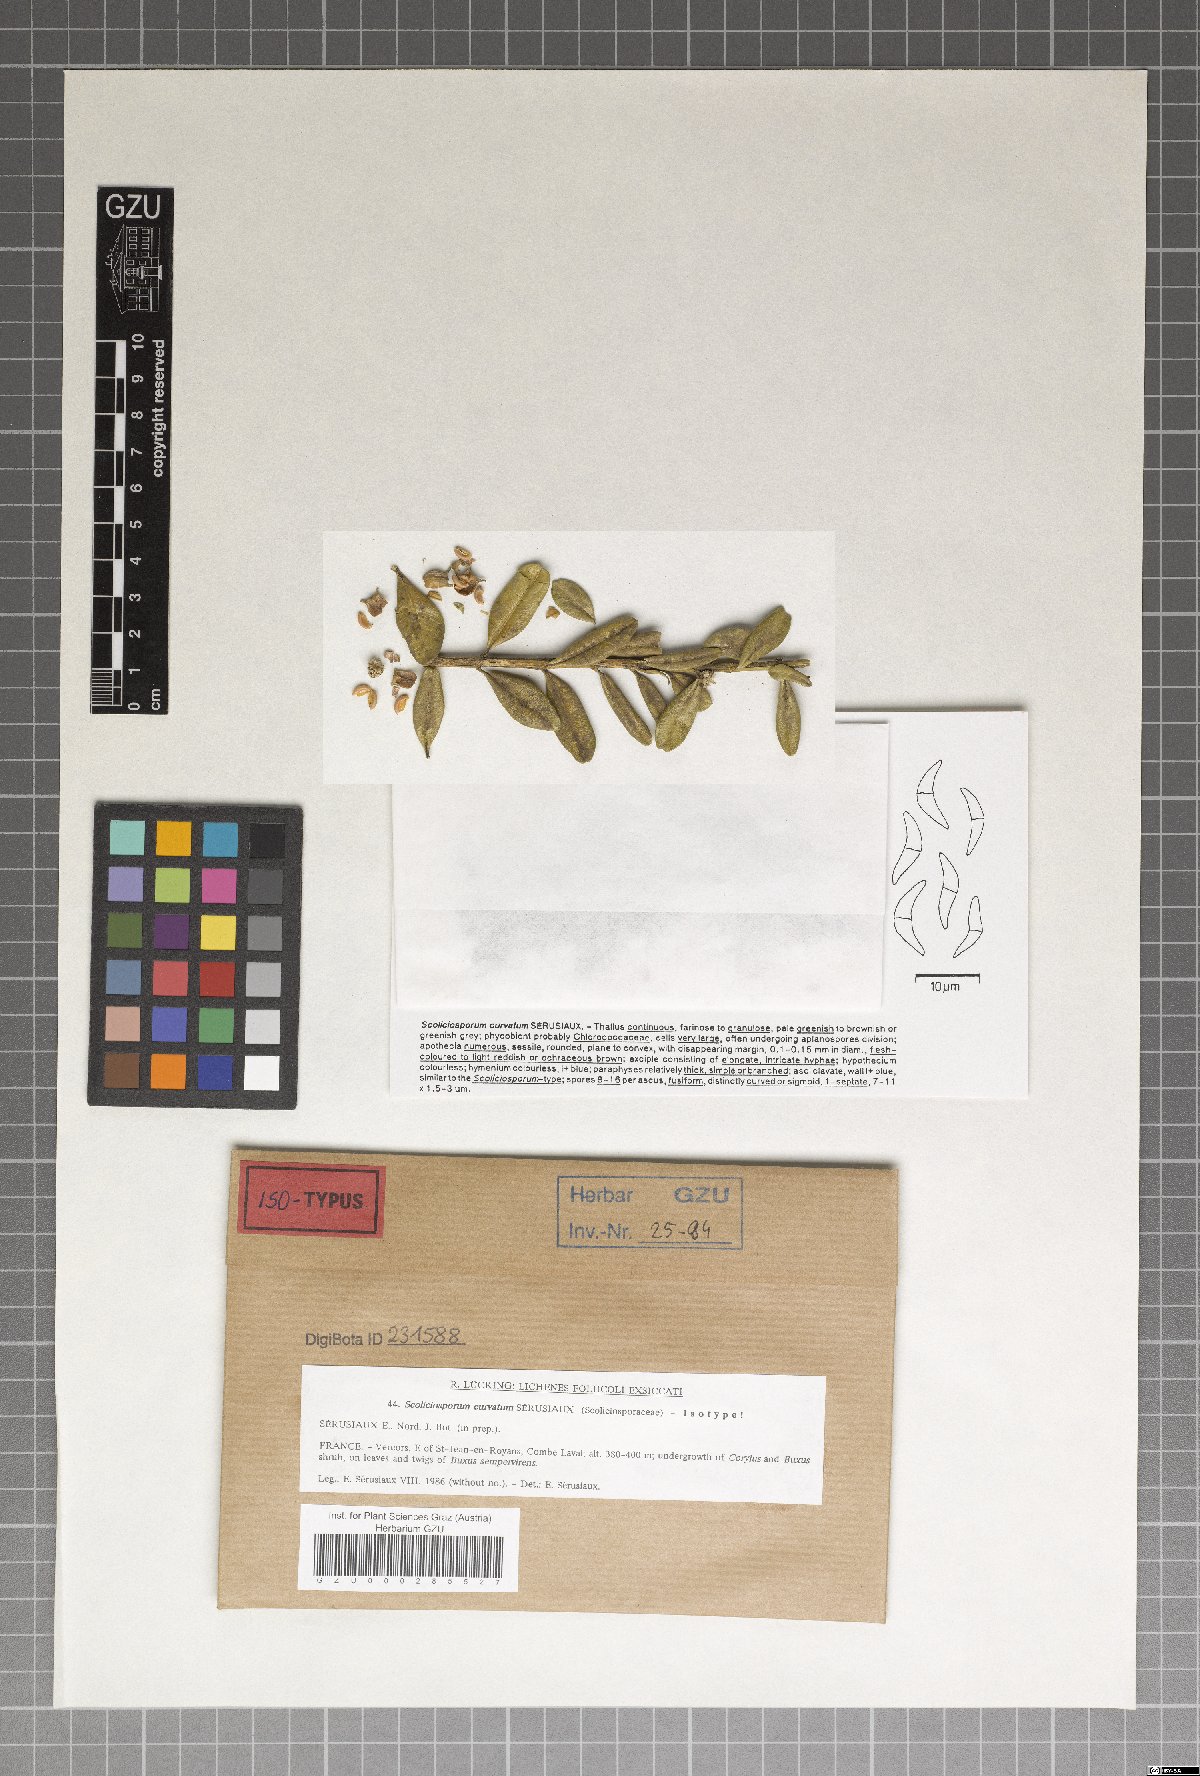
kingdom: Fungi
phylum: Ascomycota
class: Lecanoromycetes
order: Lecanorales
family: Scoliciosporaceae
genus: Scoliciosporum
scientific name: Scoliciosporum curvatum
